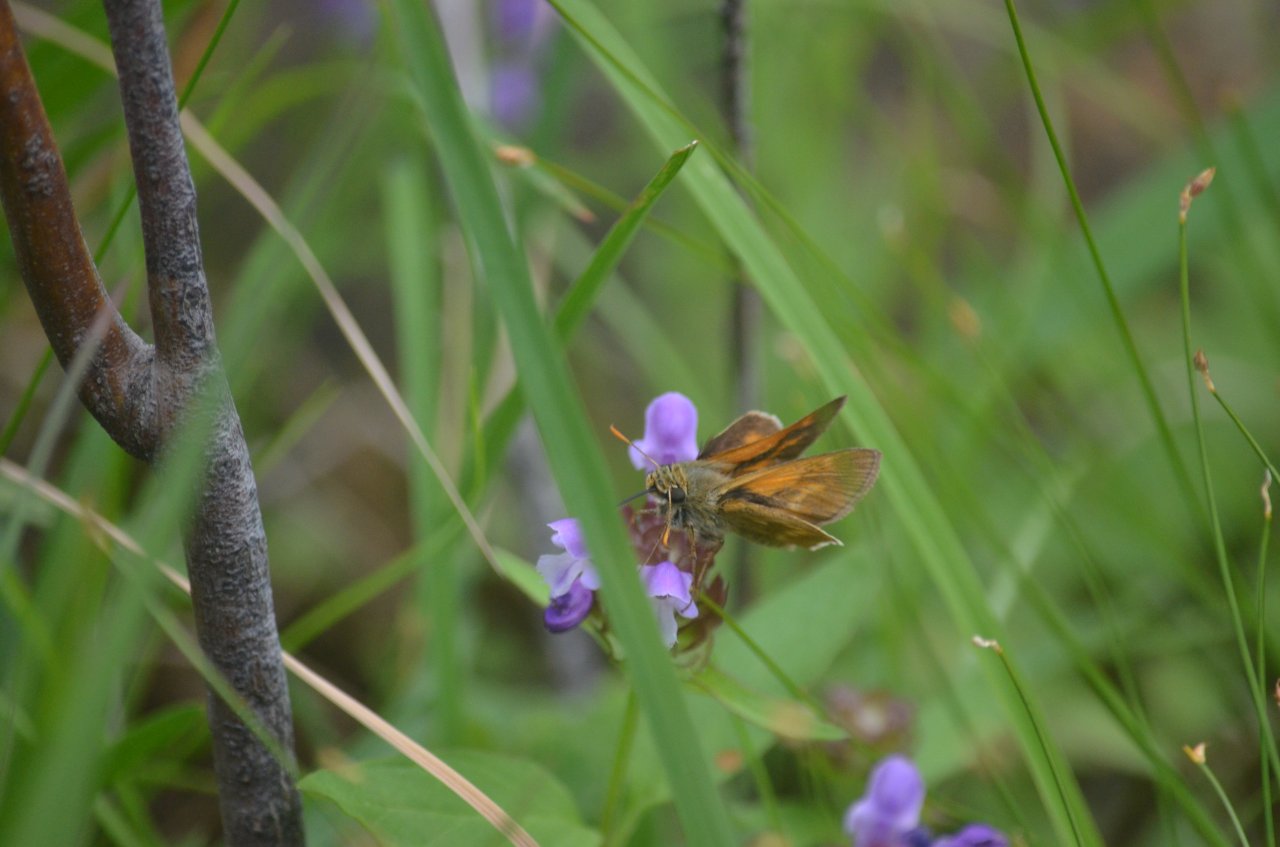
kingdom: Animalia
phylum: Arthropoda
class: Insecta
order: Lepidoptera
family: Hesperiidae
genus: Polites
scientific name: Polites
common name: Long Dash Skipper
